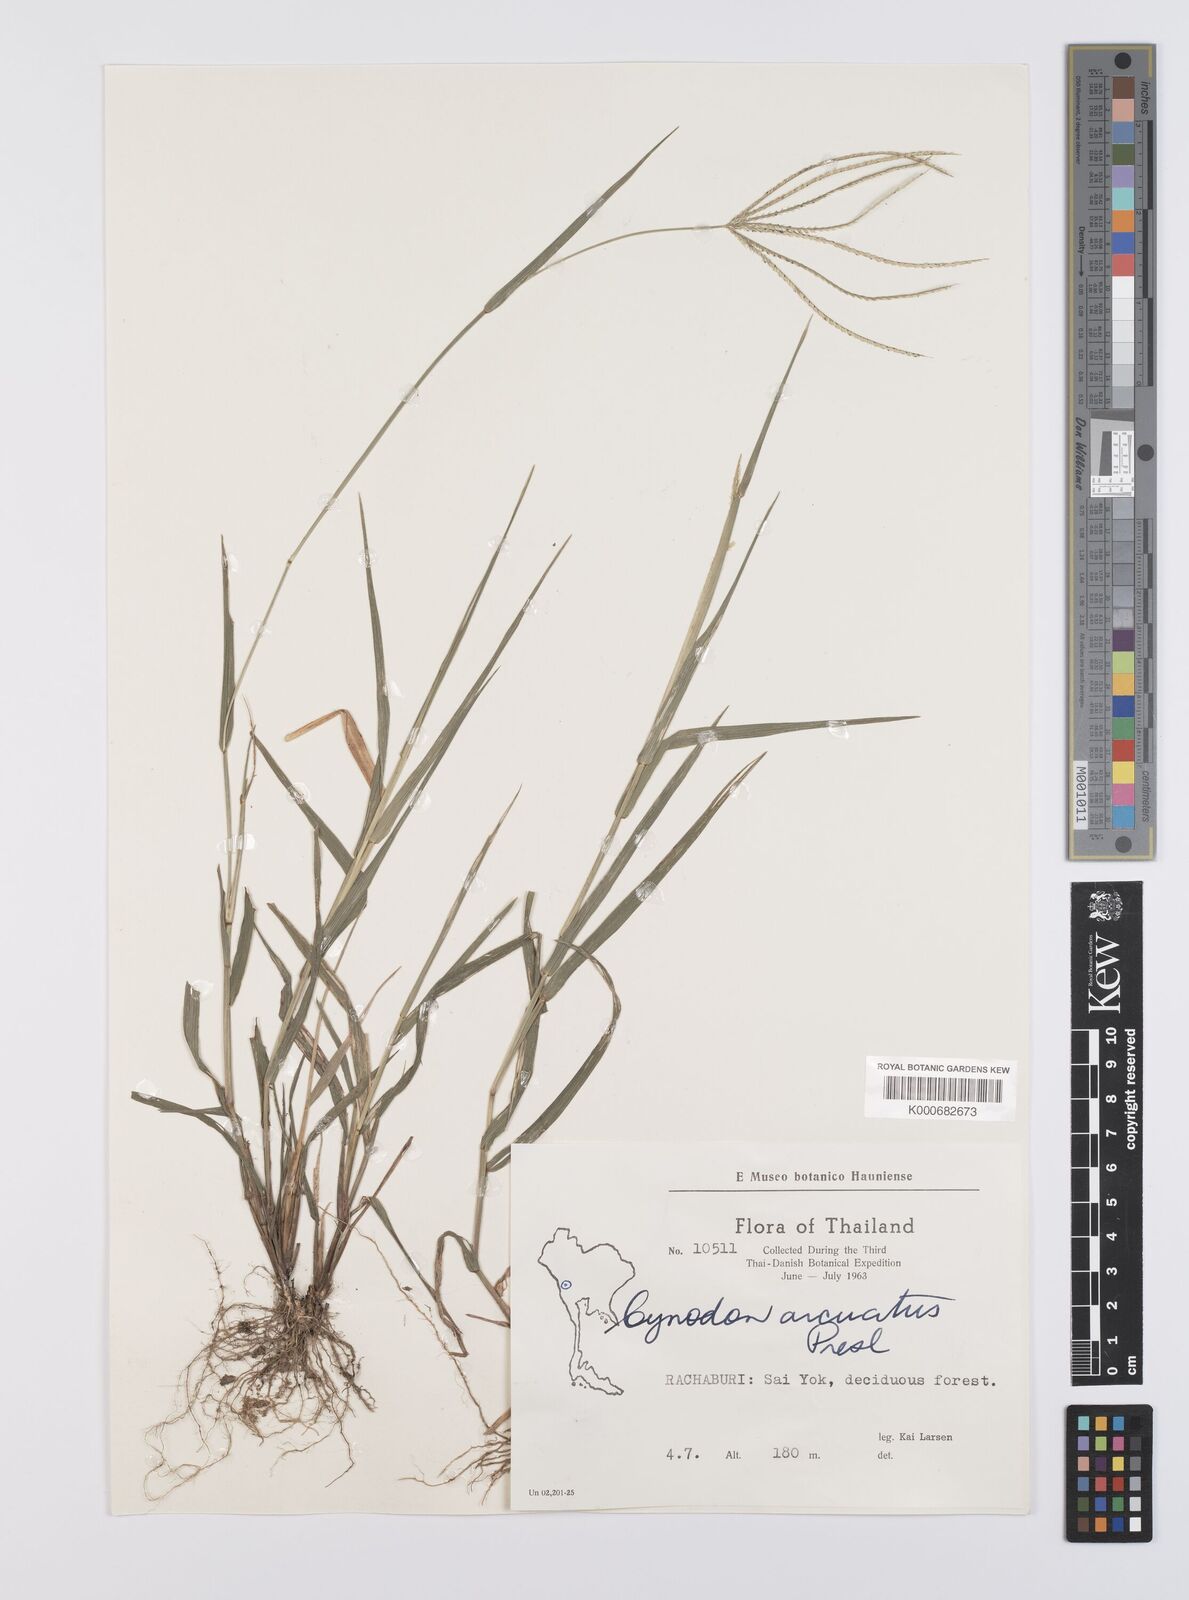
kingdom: Plantae
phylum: Tracheophyta
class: Liliopsida
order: Poales
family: Poaceae
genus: Cynodon
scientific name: Cynodon radiatus
